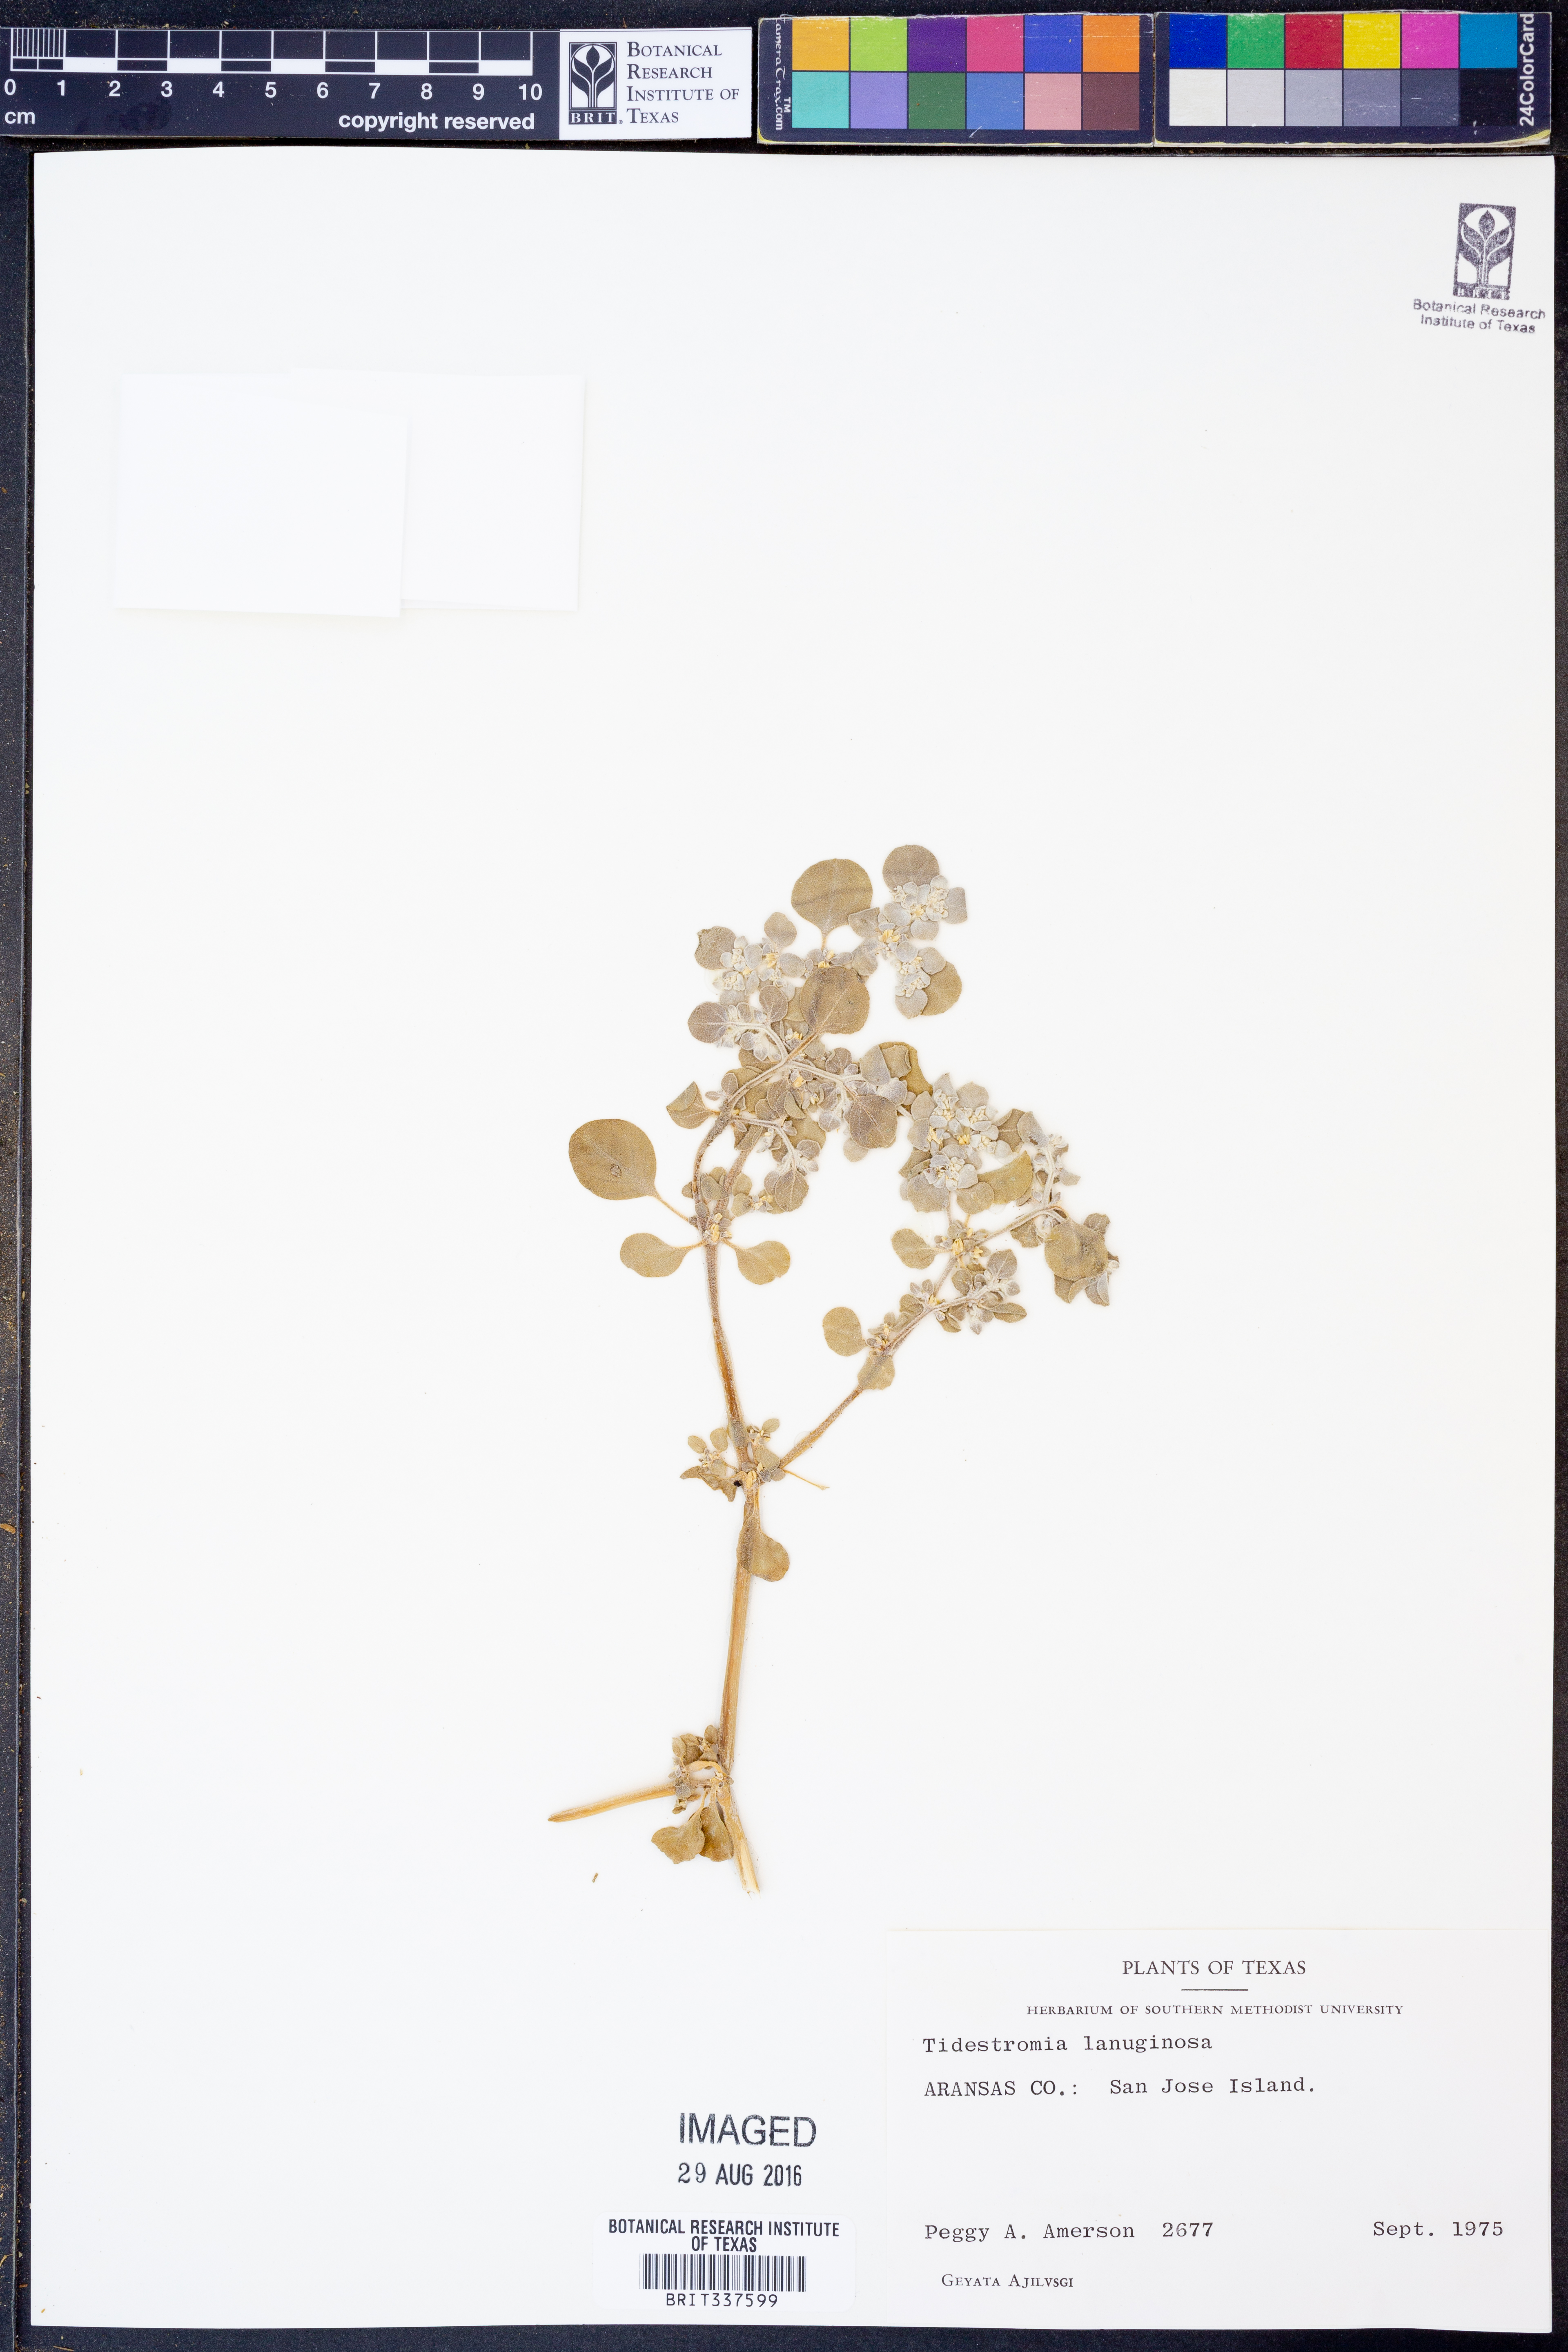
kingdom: Plantae
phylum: Tracheophyta
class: Magnoliopsida
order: Caryophyllales
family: Amaranthaceae
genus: Tidestromia
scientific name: Tidestromia lanuginosa
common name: Woolly tidestromia
